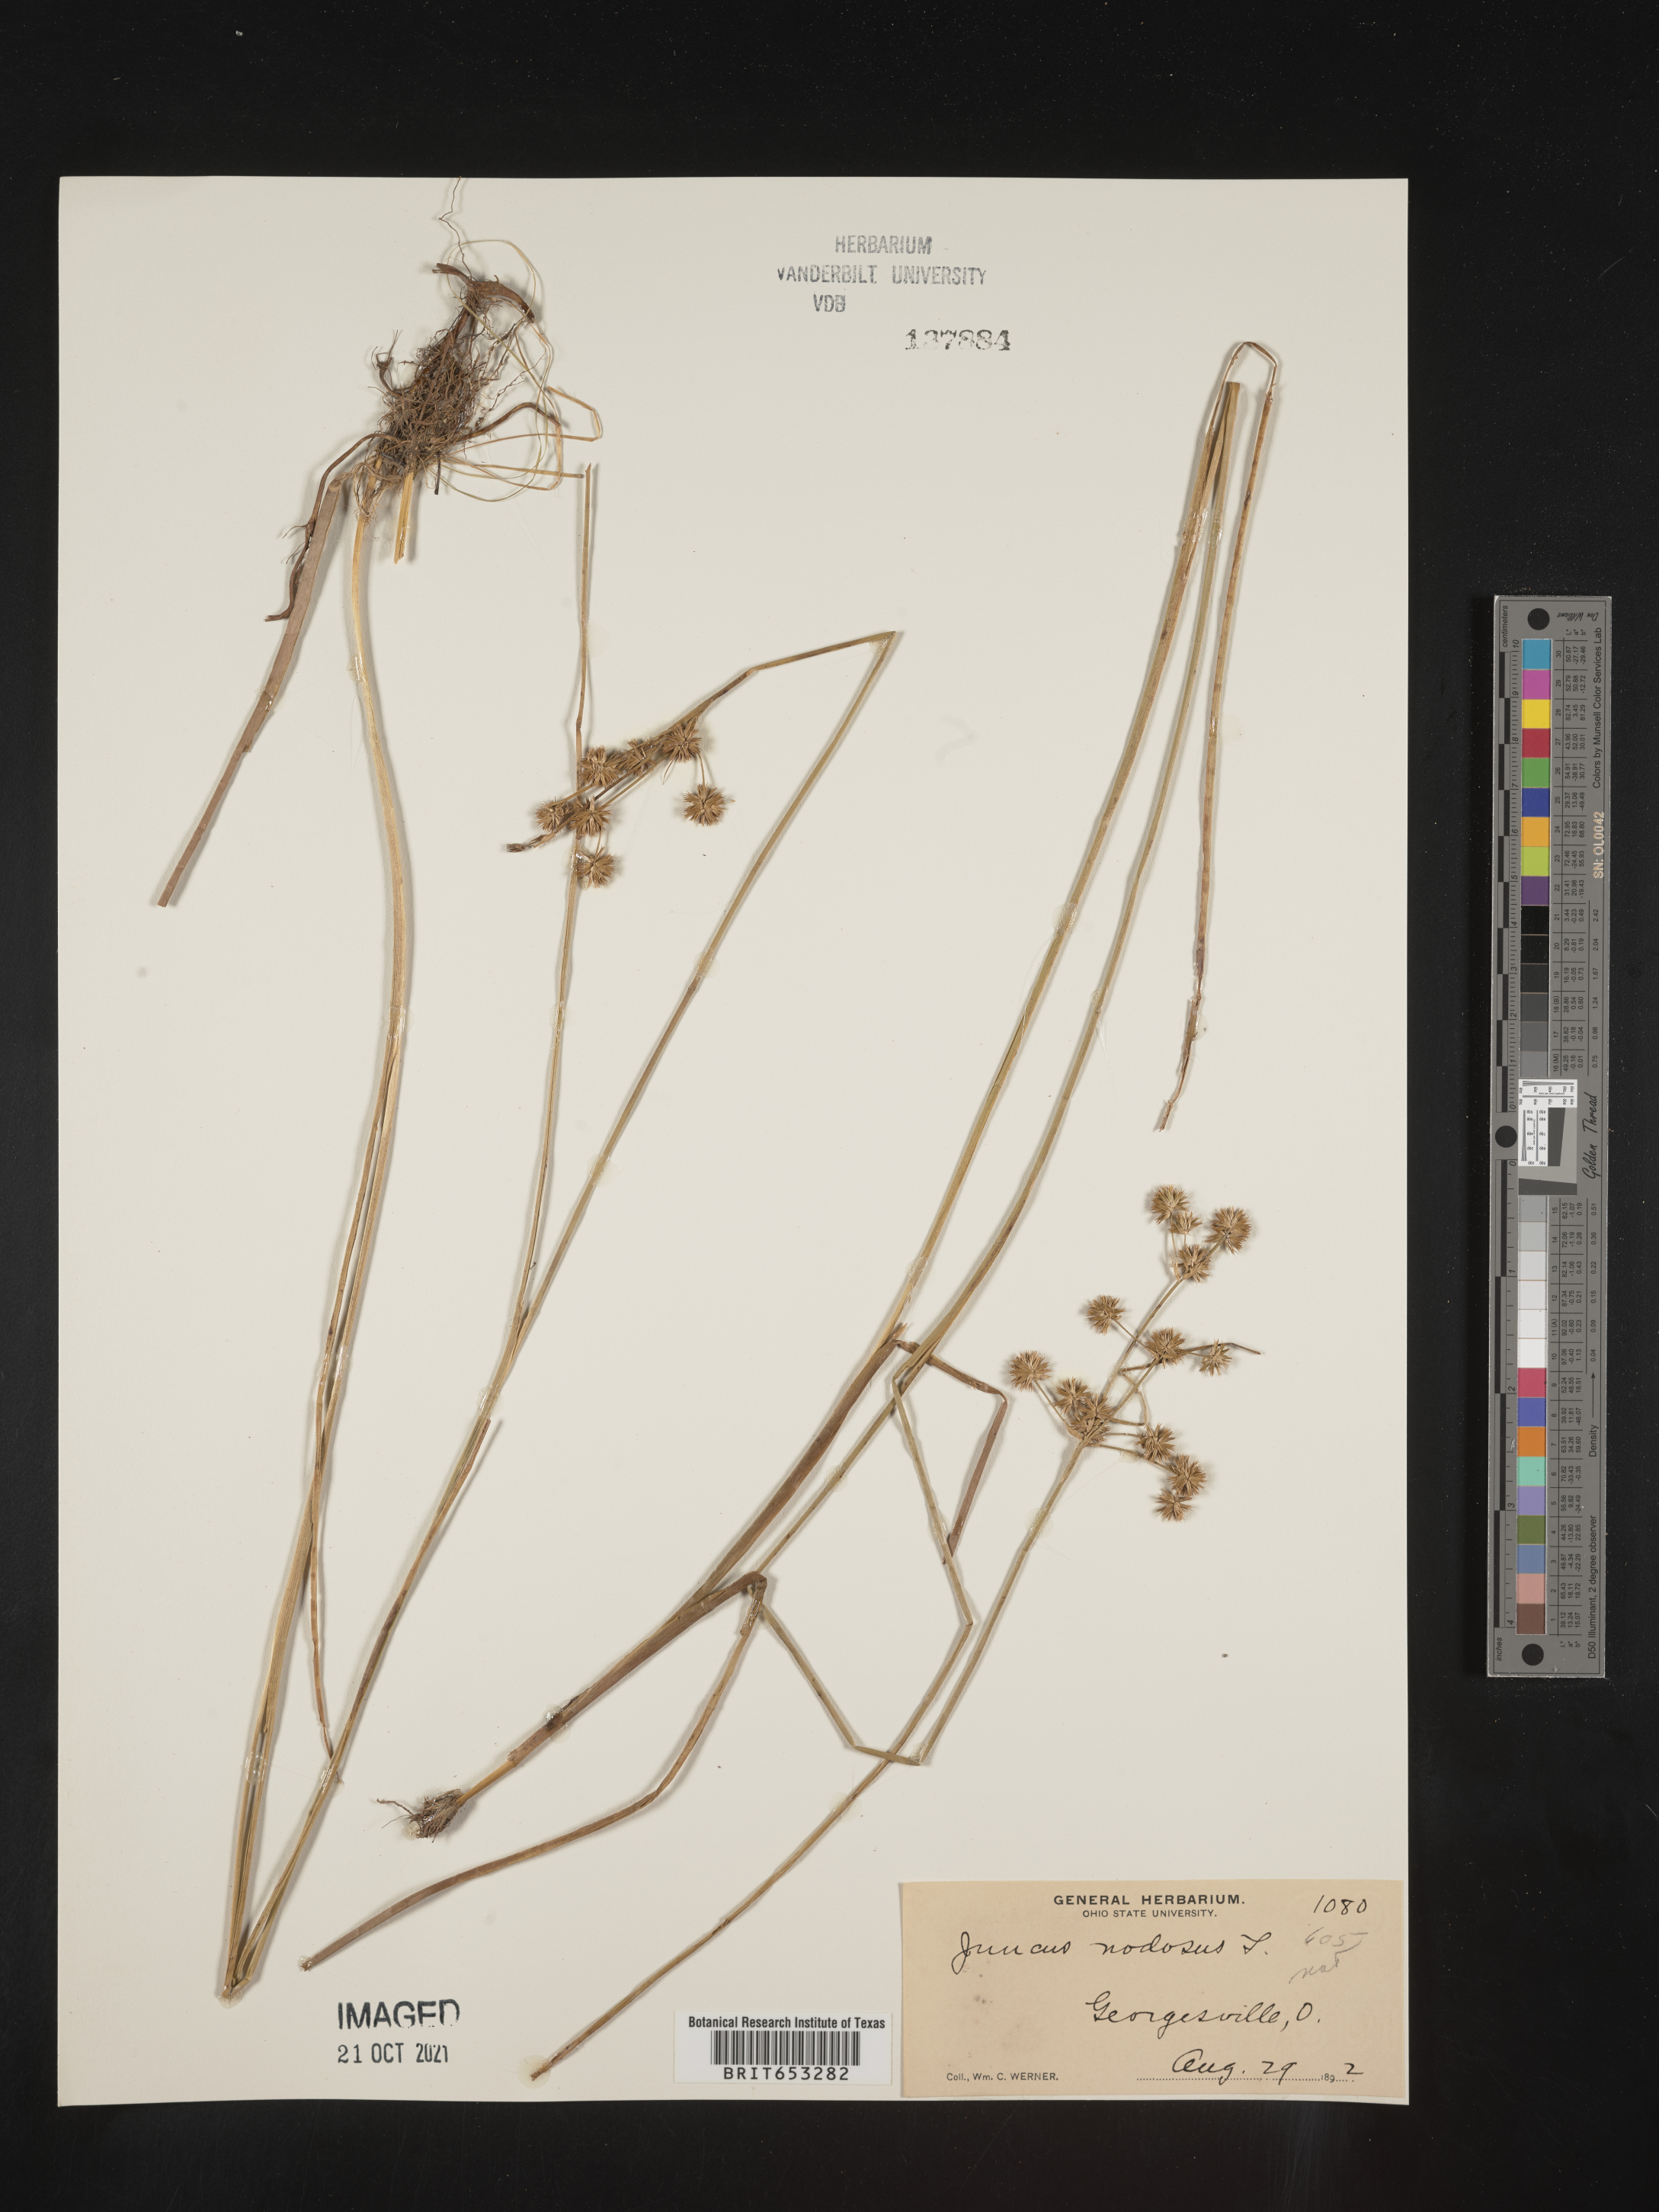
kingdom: Plantae
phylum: Tracheophyta
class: Liliopsida
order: Poales
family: Juncaceae
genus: Juncus
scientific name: Juncus nodosus
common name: Knotted rush
